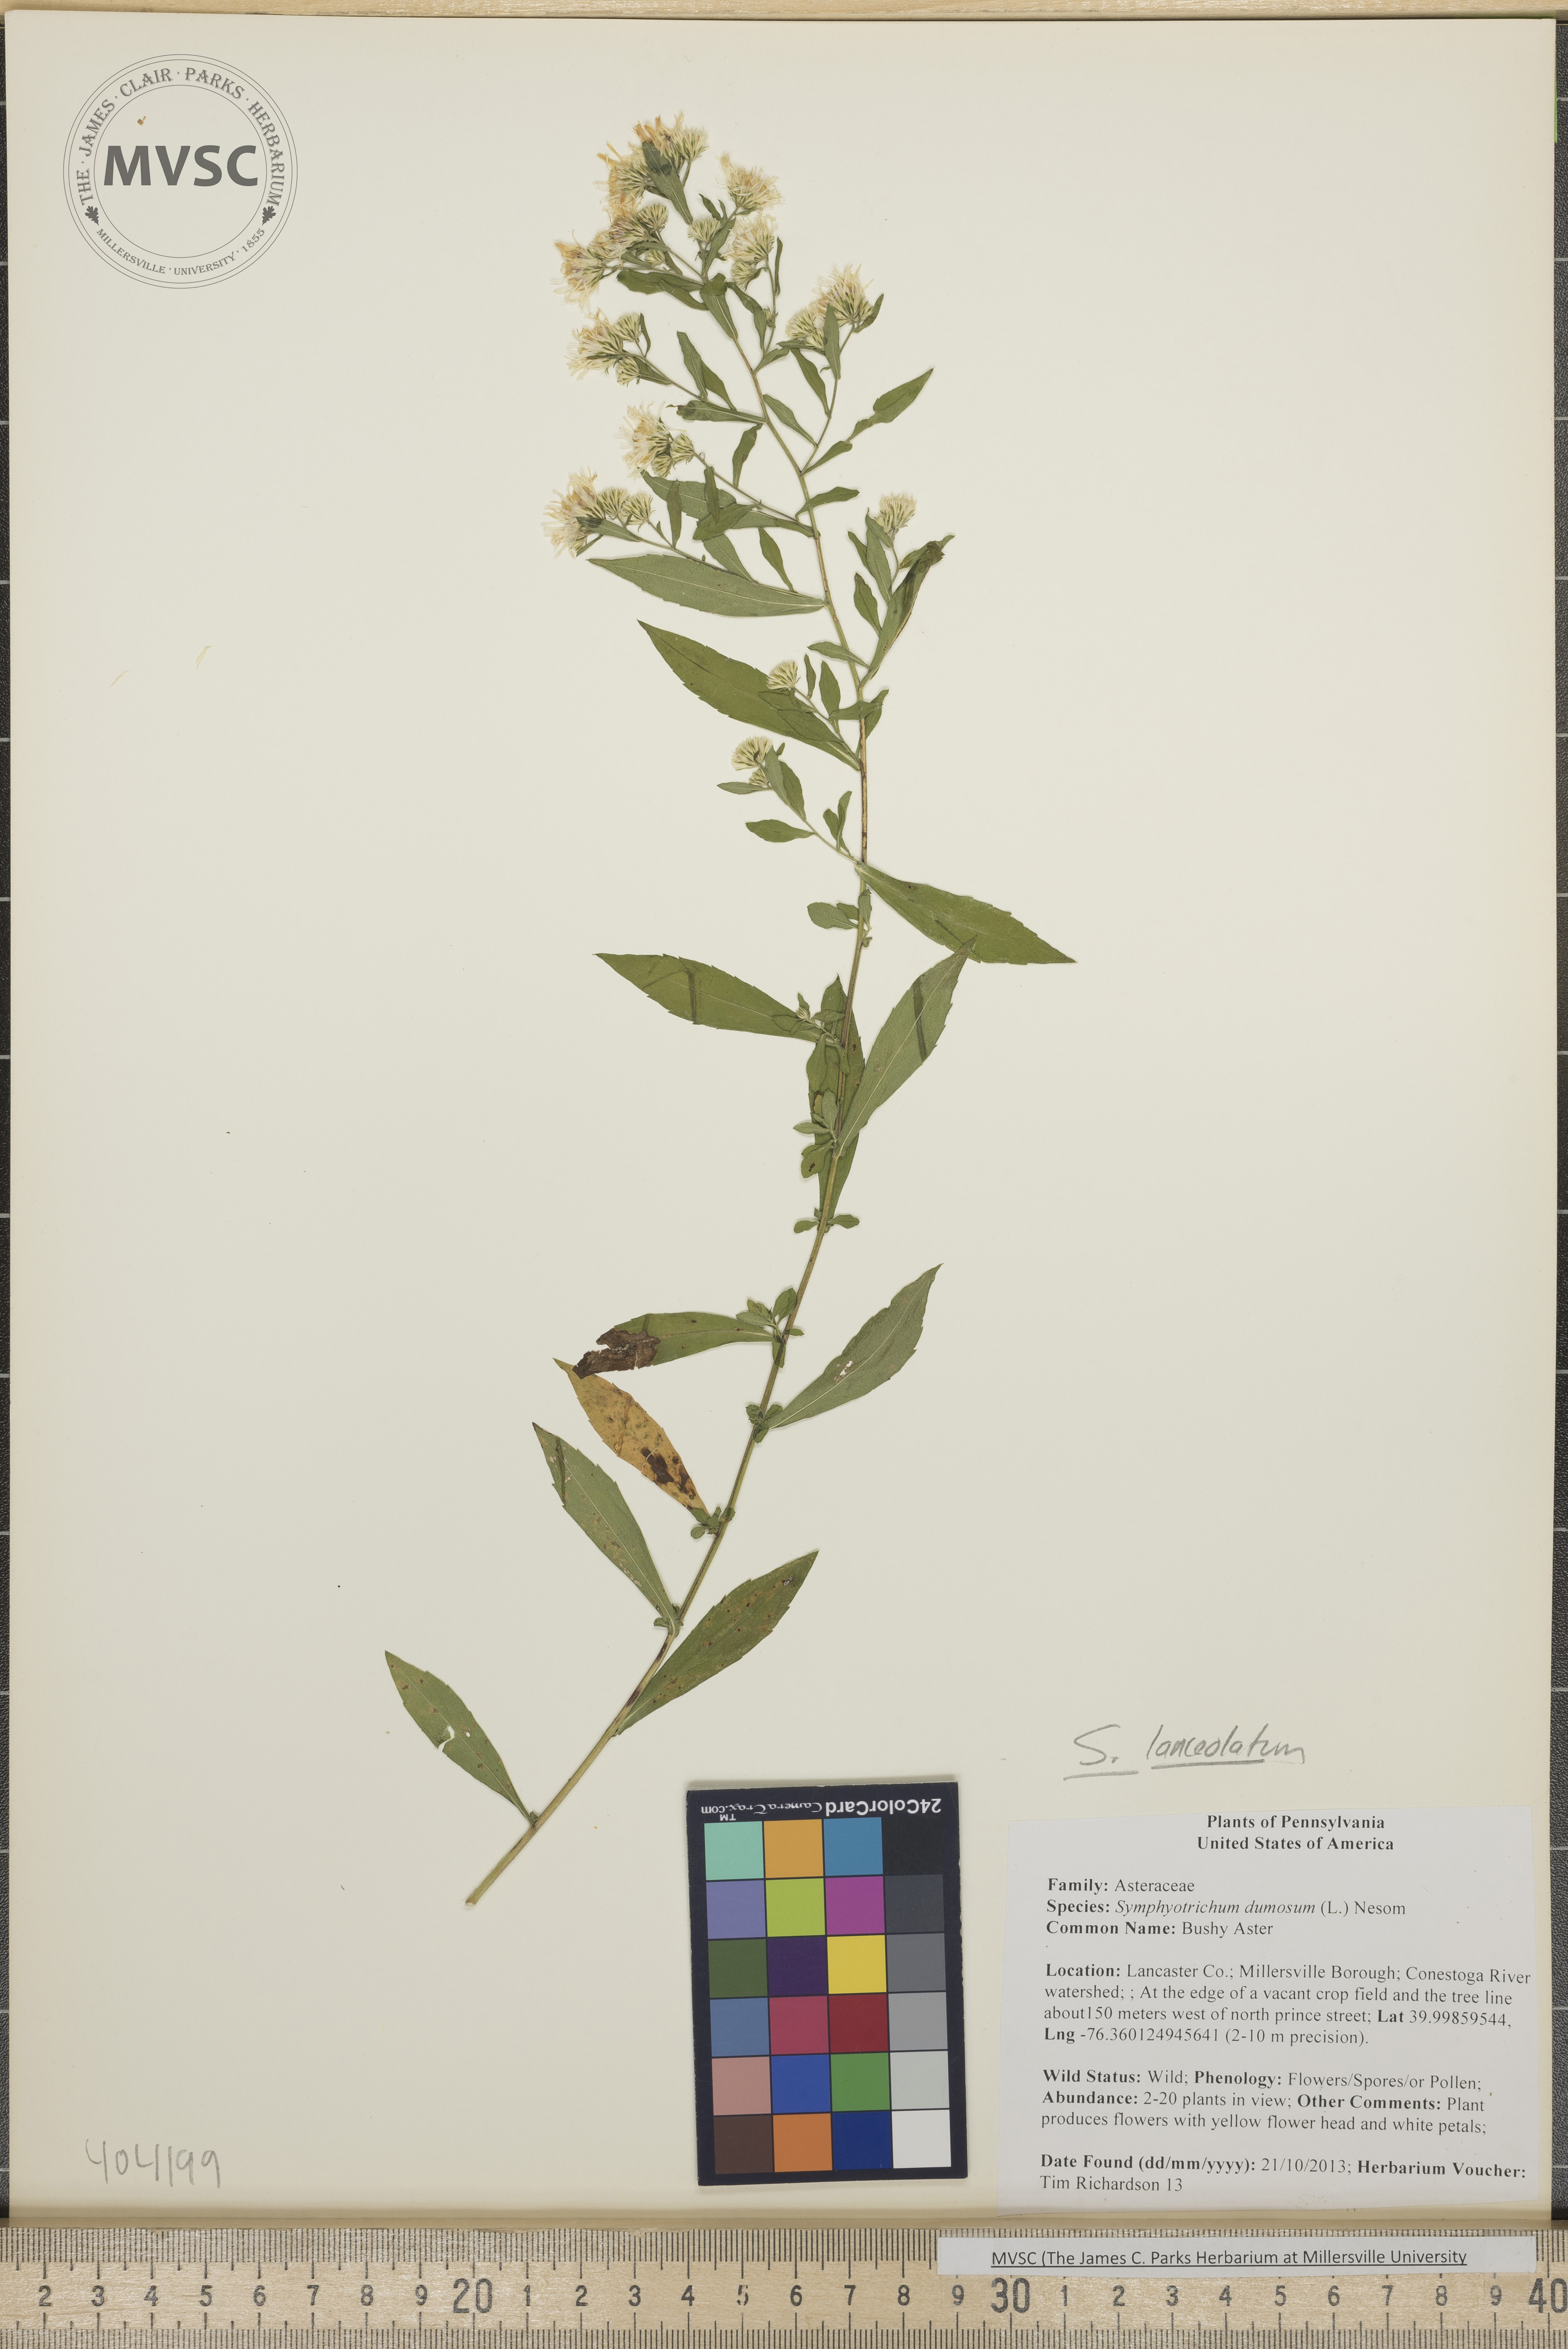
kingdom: Plantae
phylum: Tracheophyta
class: Magnoliopsida
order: Asterales
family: Asteraceae
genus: Symphyotrichum
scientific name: Symphyotrichum lanceolatum
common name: Aster
